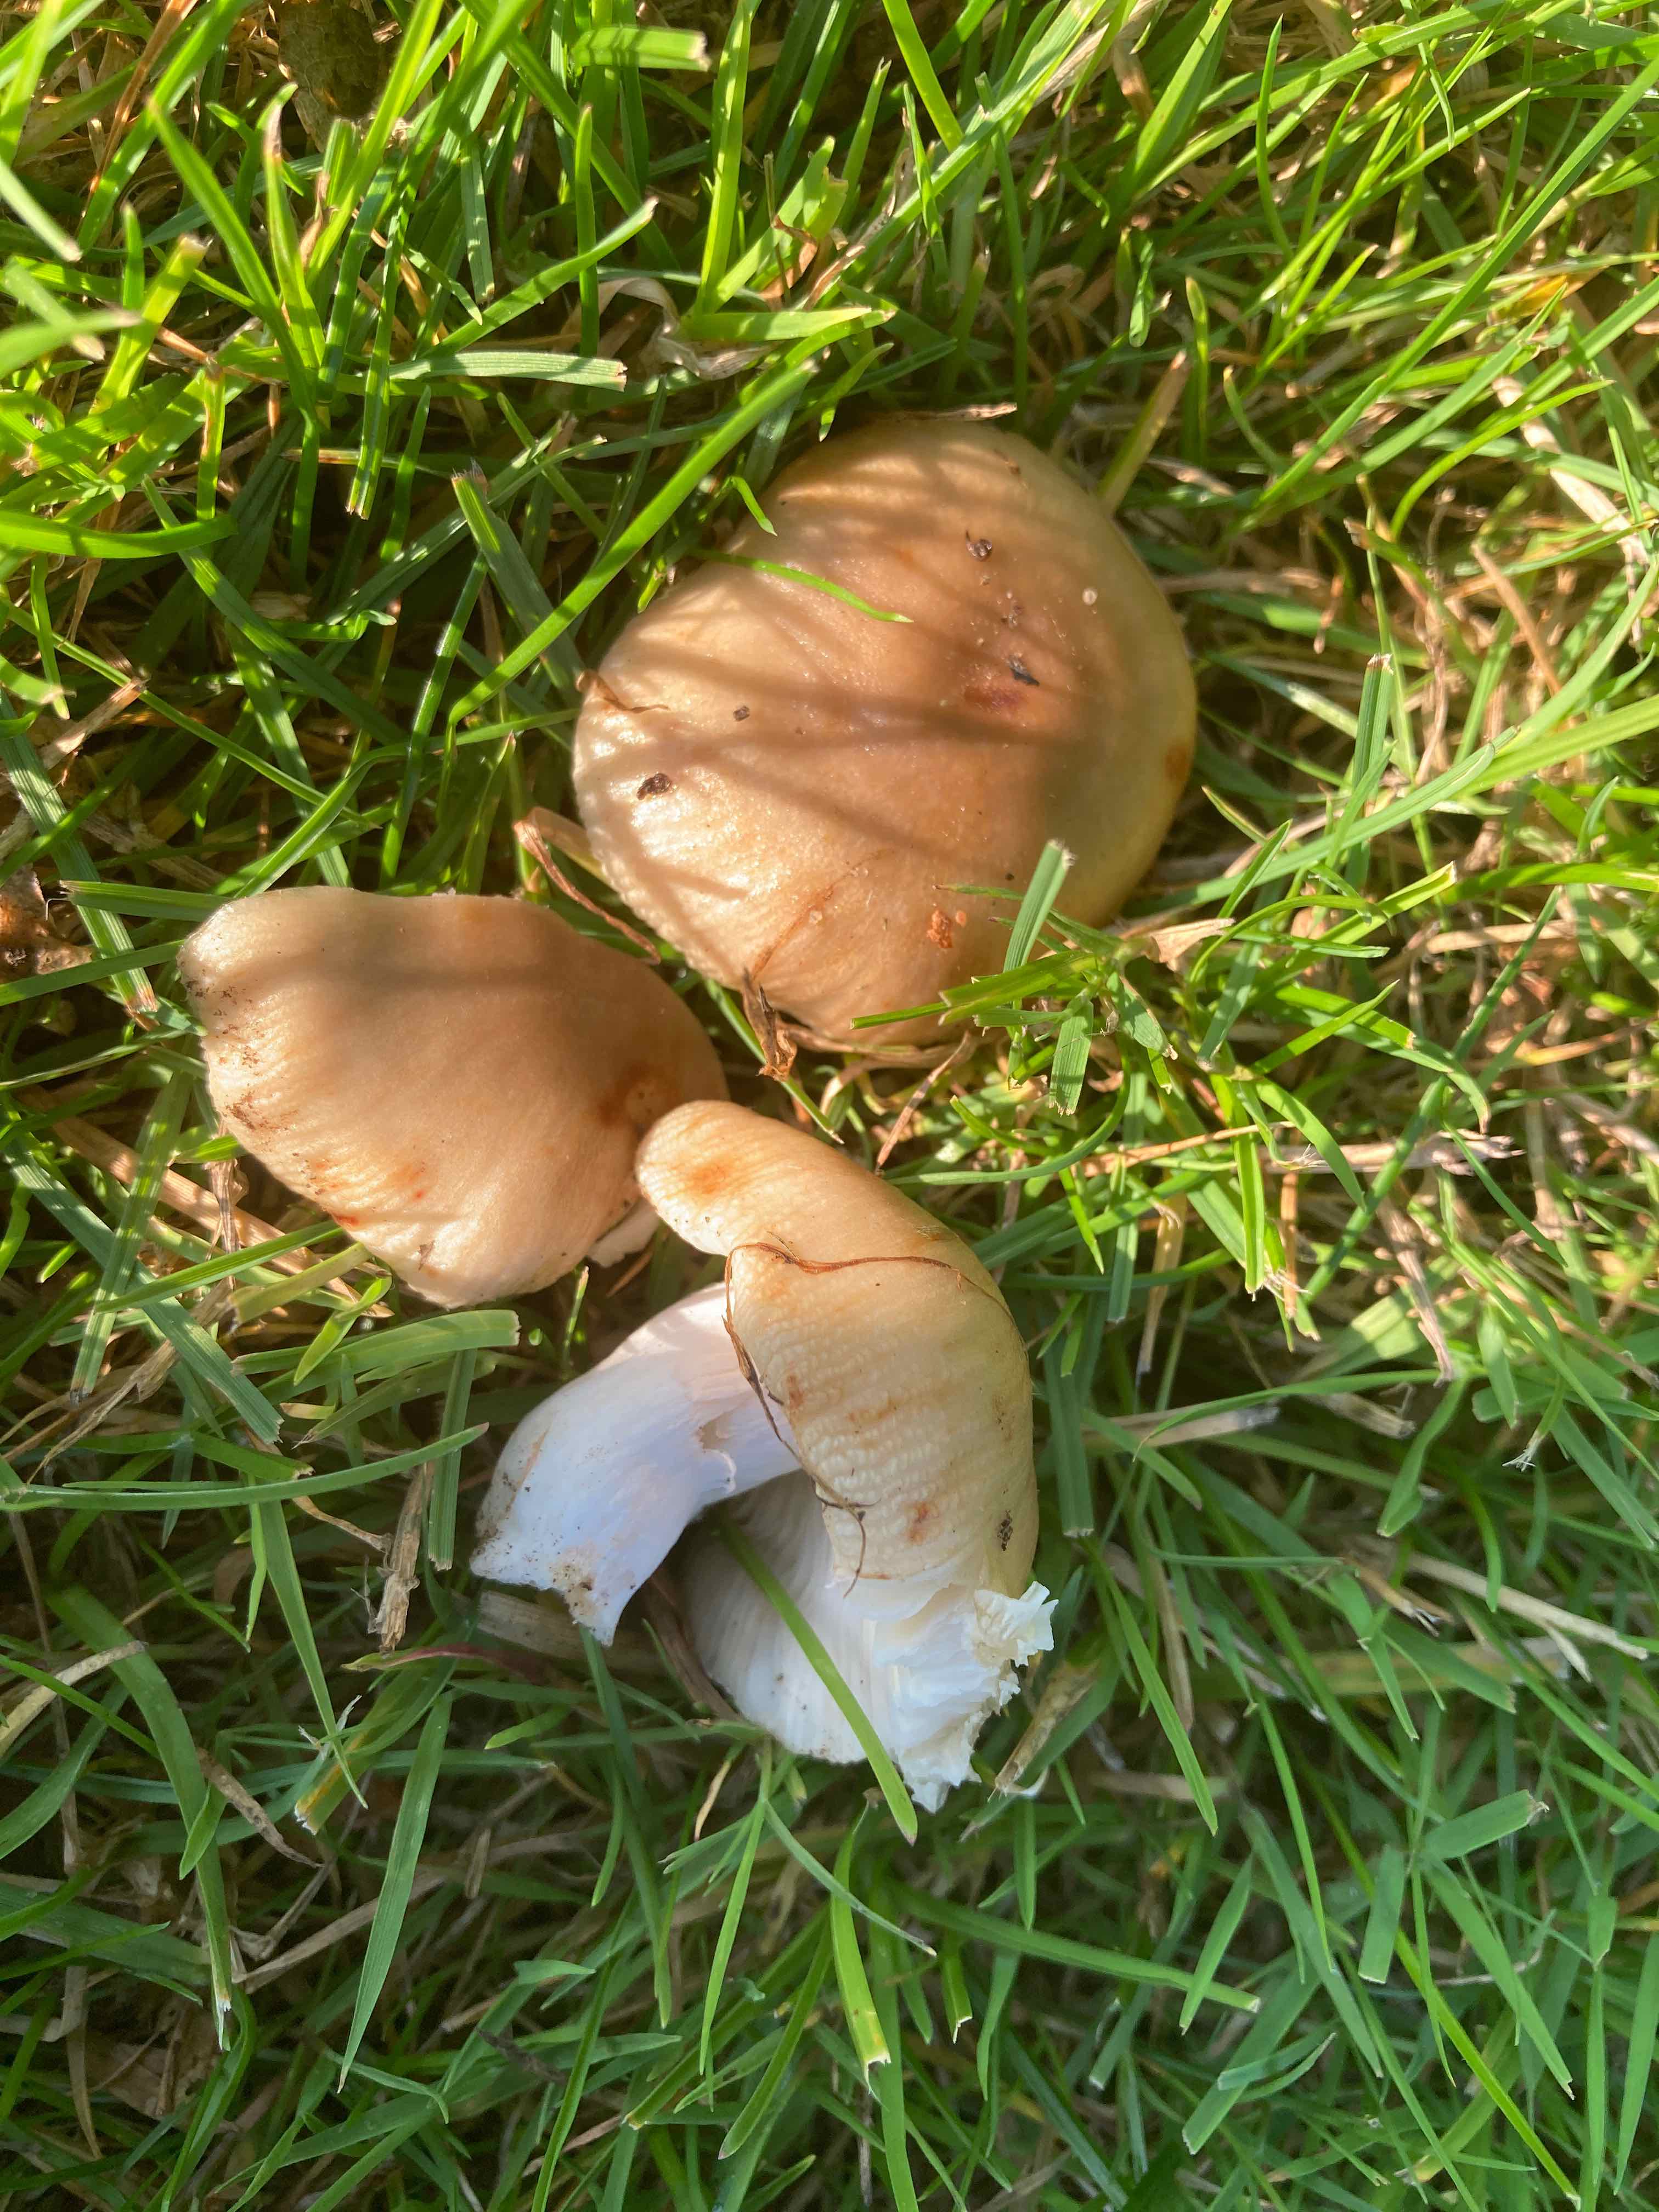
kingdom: Fungi
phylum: Basidiomycota
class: Agaricomycetes
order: Russulales
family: Russulaceae
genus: Russula
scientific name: Russula recondita
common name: mild kam-skørhat
